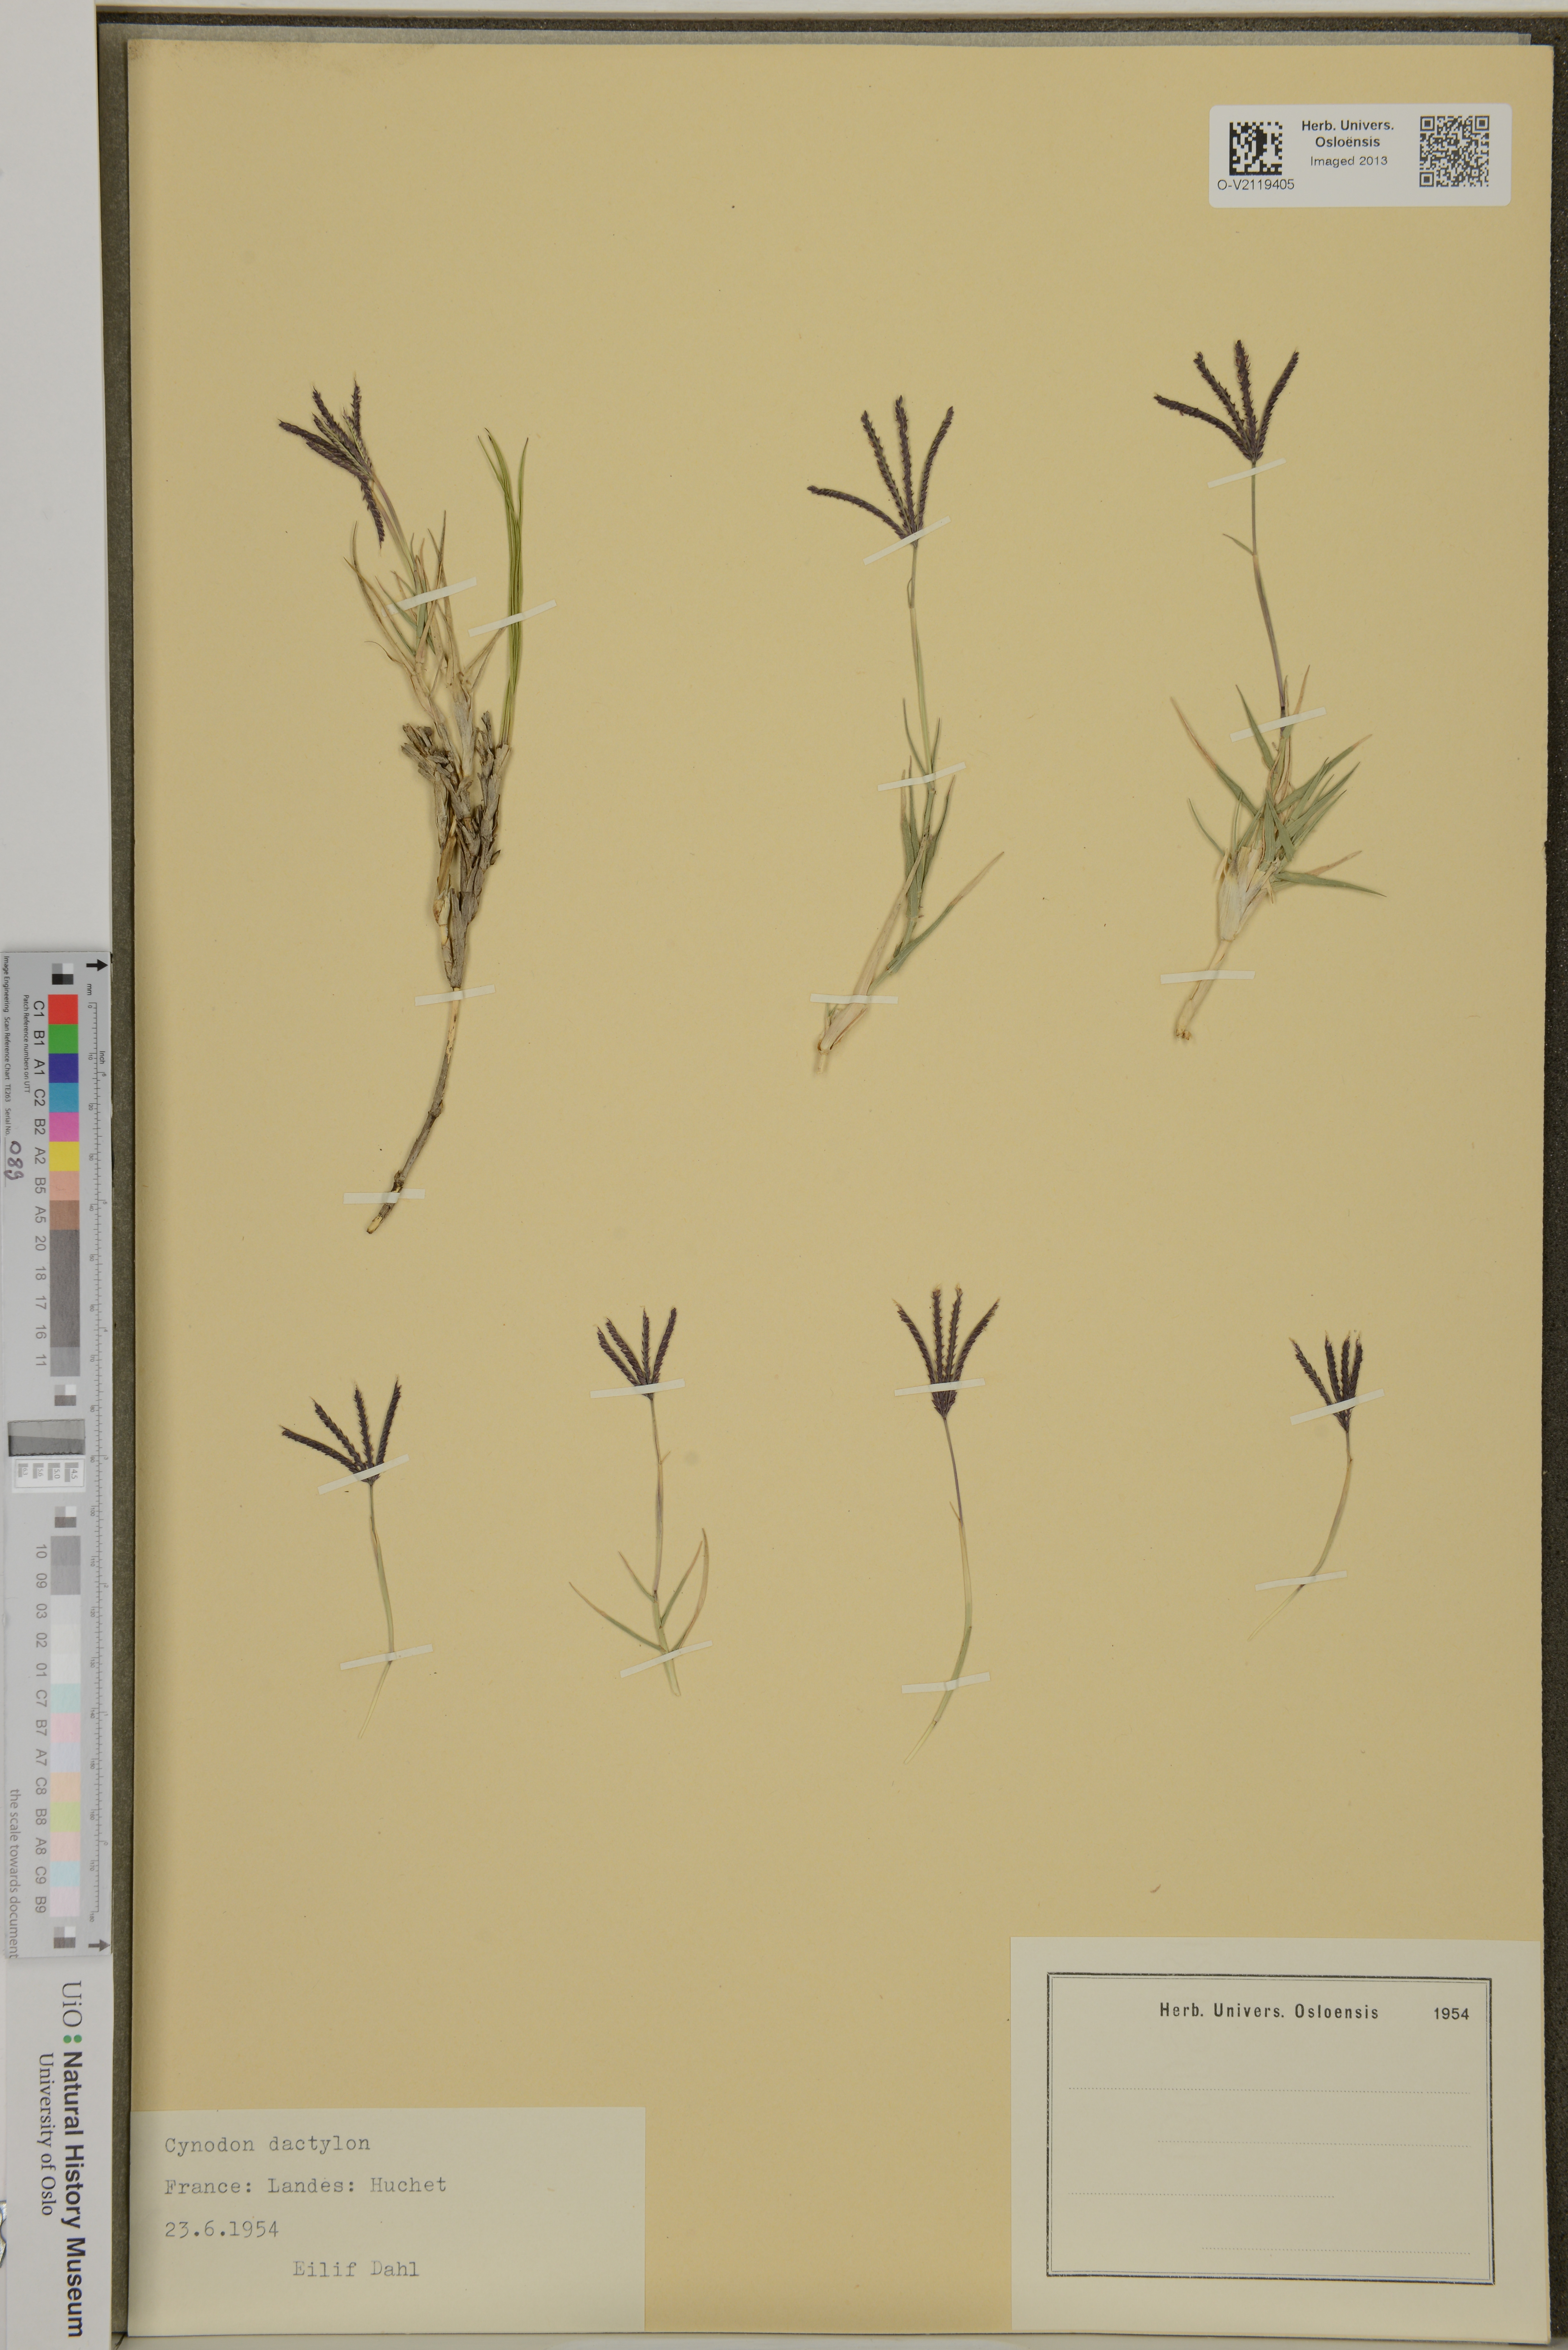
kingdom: Plantae
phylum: Tracheophyta
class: Liliopsida
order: Poales
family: Poaceae
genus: Cynodon
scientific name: Cynodon dactylon
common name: Bermuda grass
